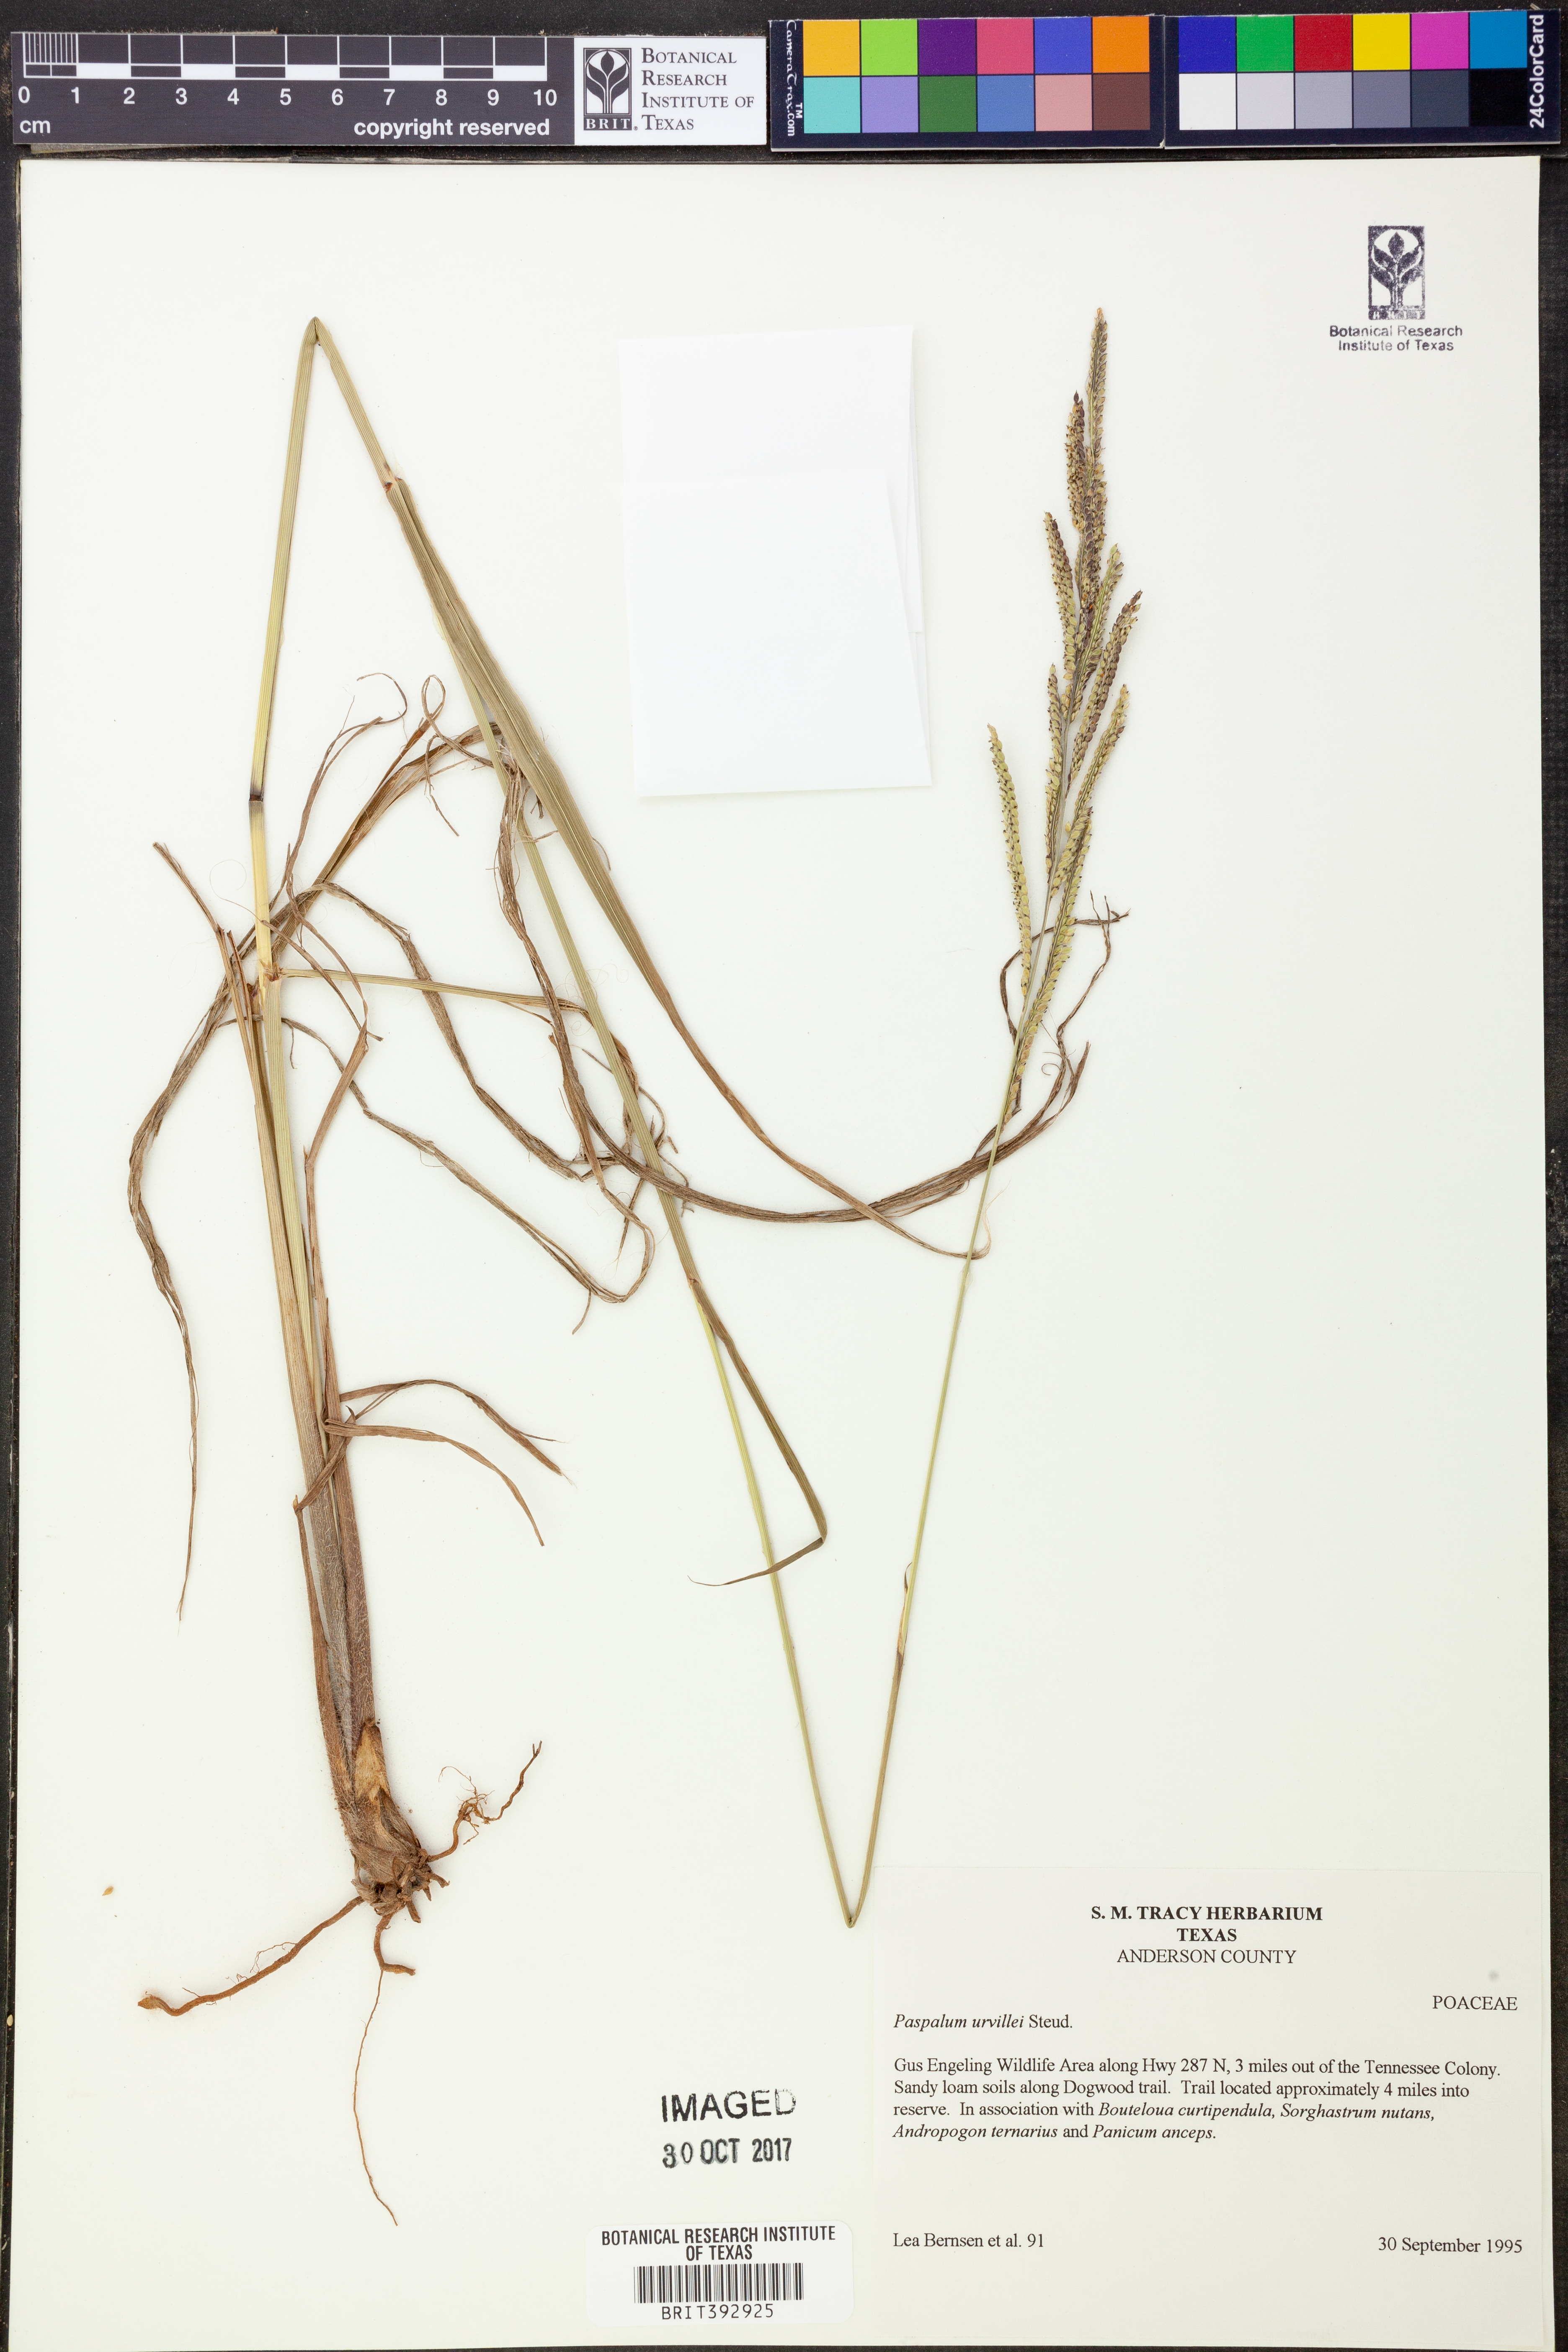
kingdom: Plantae
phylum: Tracheophyta
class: Liliopsida
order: Poales
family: Poaceae
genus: Paspalum
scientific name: Paspalum urvillei
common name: Vasey's grass
